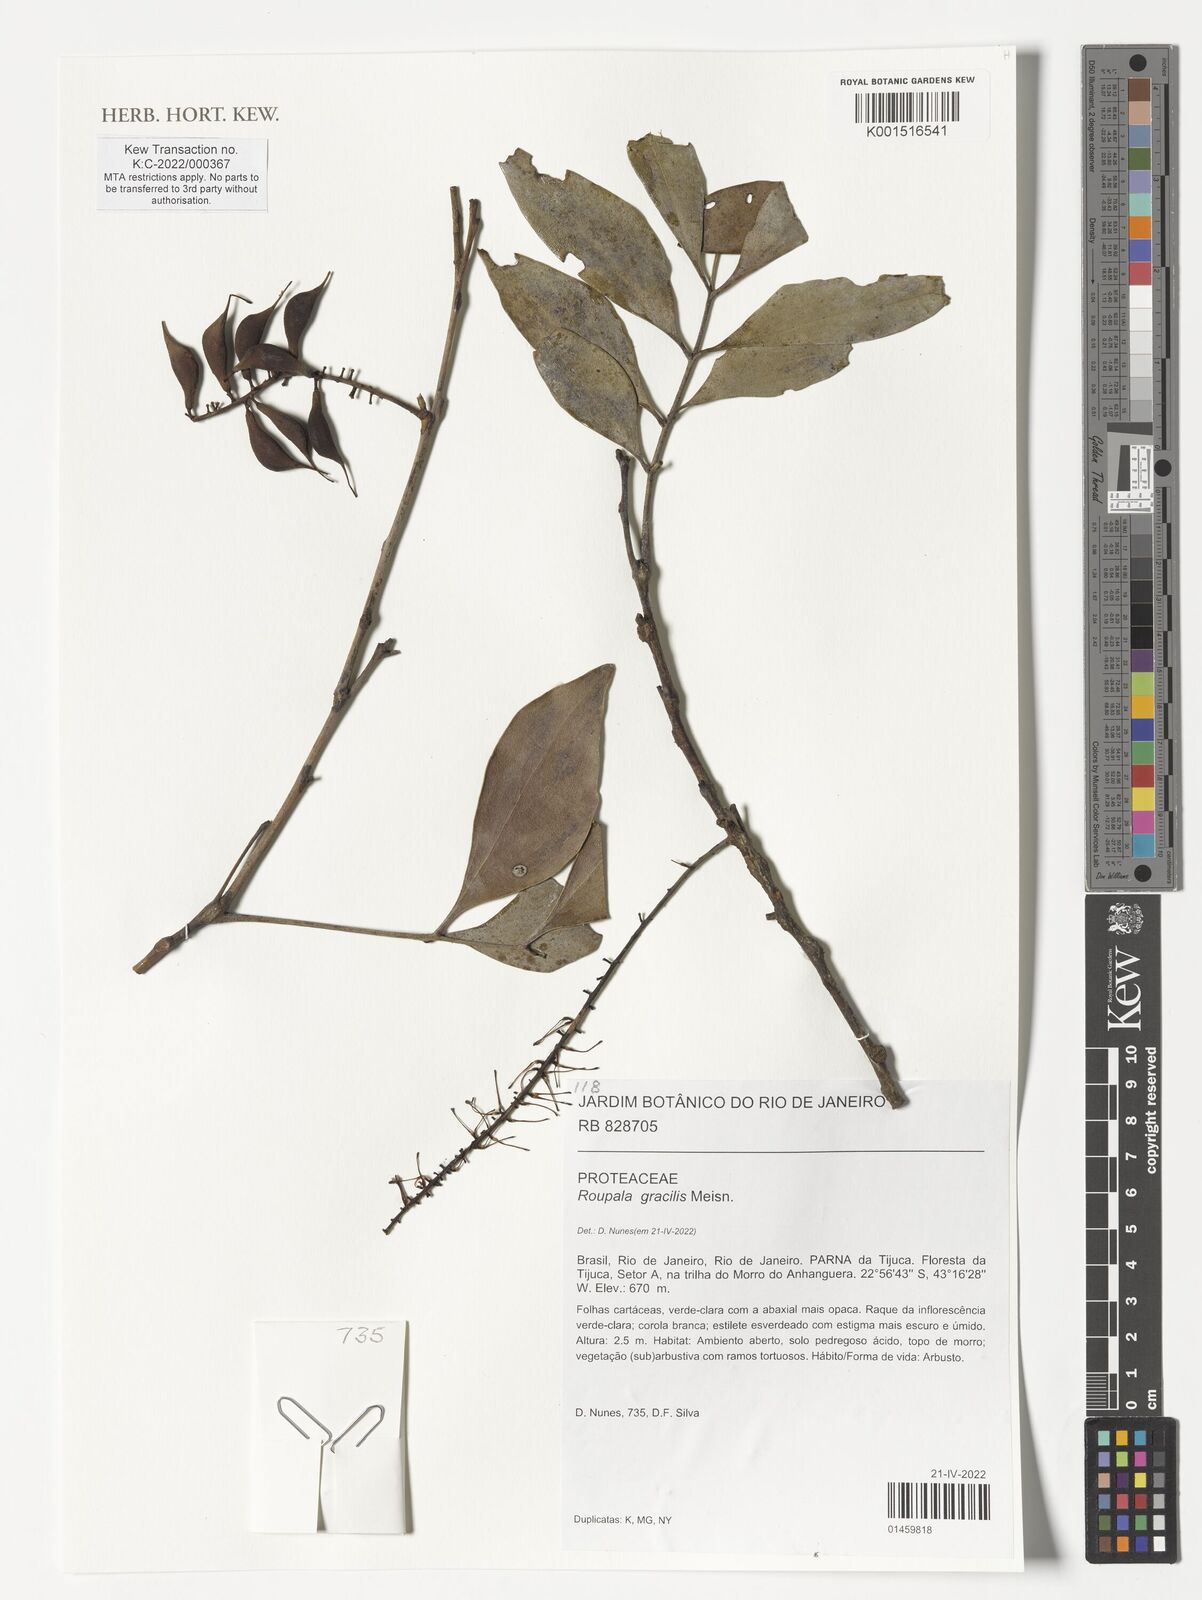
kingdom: Plantae
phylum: Tracheophyta
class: Magnoliopsida
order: Proteales
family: Proteaceae
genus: Roupala
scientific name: Roupala gracilis
